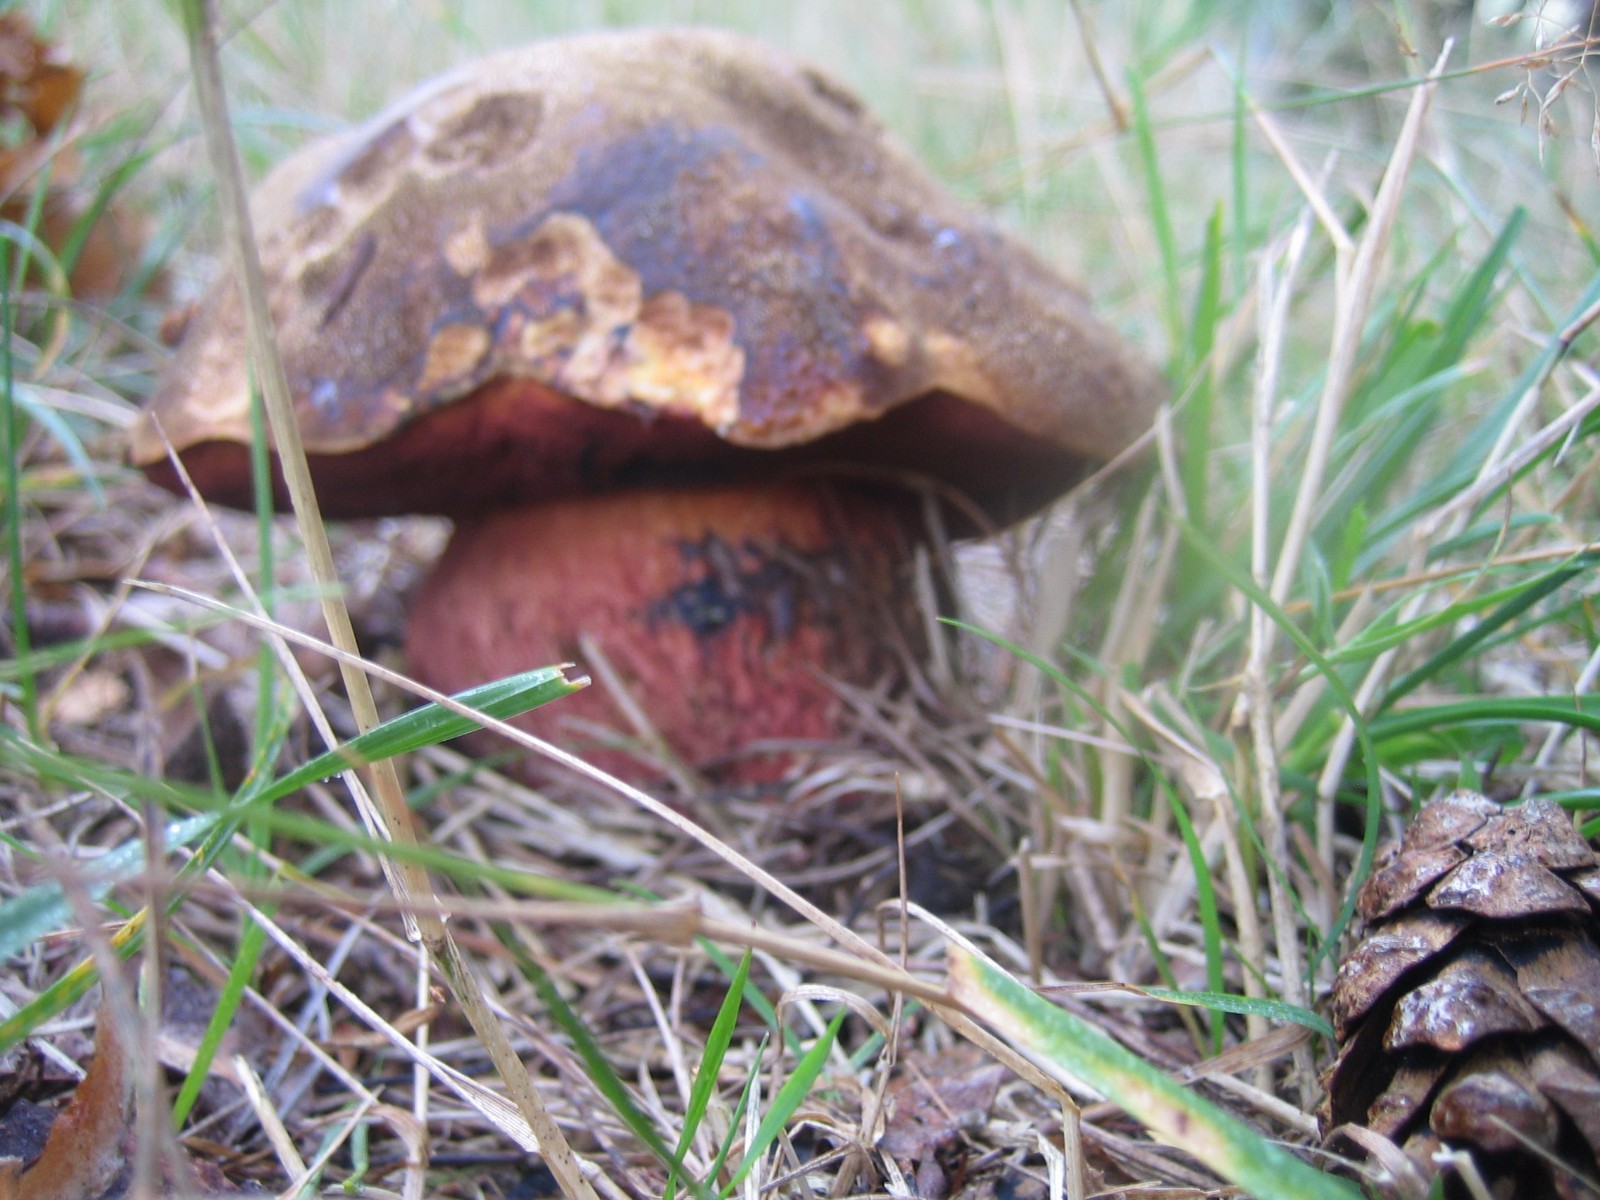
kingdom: Fungi
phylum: Basidiomycota
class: Agaricomycetes
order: Boletales
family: Boletaceae
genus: Neoboletus
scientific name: Neoboletus erythropus
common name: punktstokket indigorørhat
